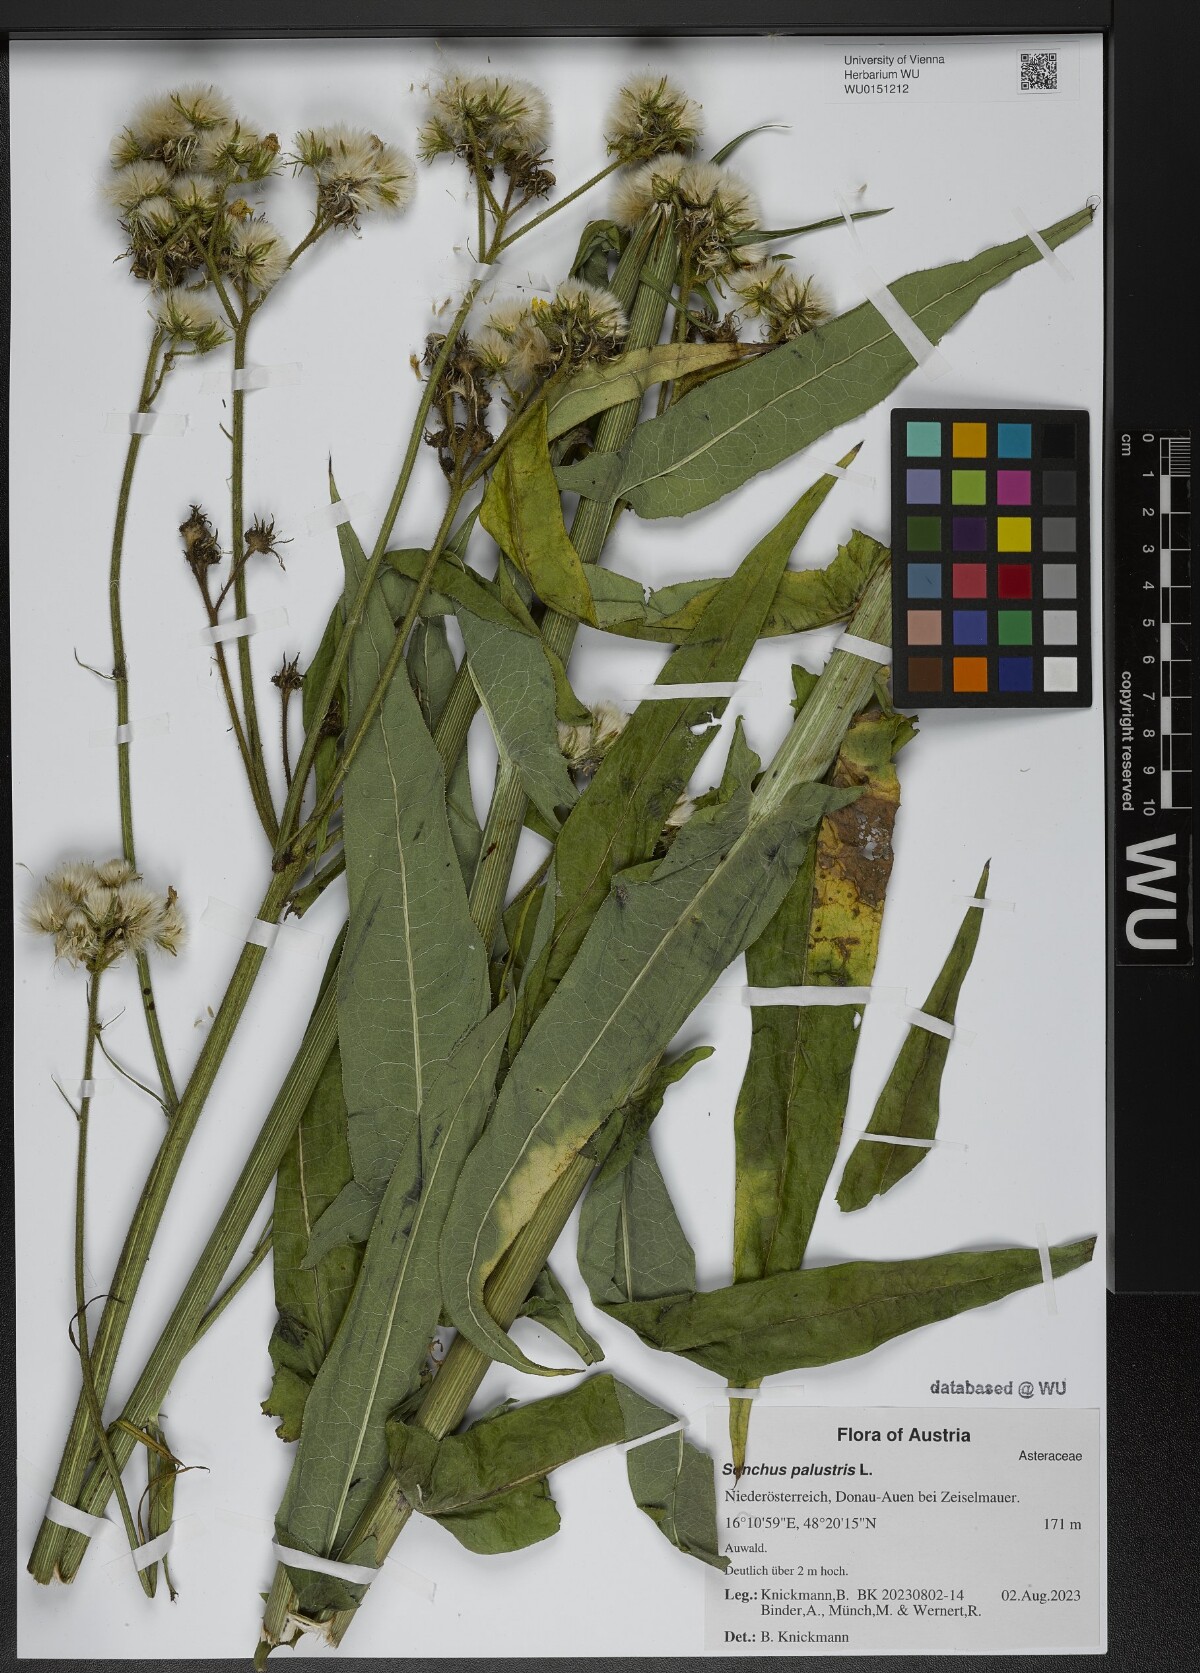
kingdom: Plantae
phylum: Tracheophyta
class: Magnoliopsida
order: Asterales
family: Asteraceae
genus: Sonchus
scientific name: Sonchus palustris
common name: Marsh sow-thistle
